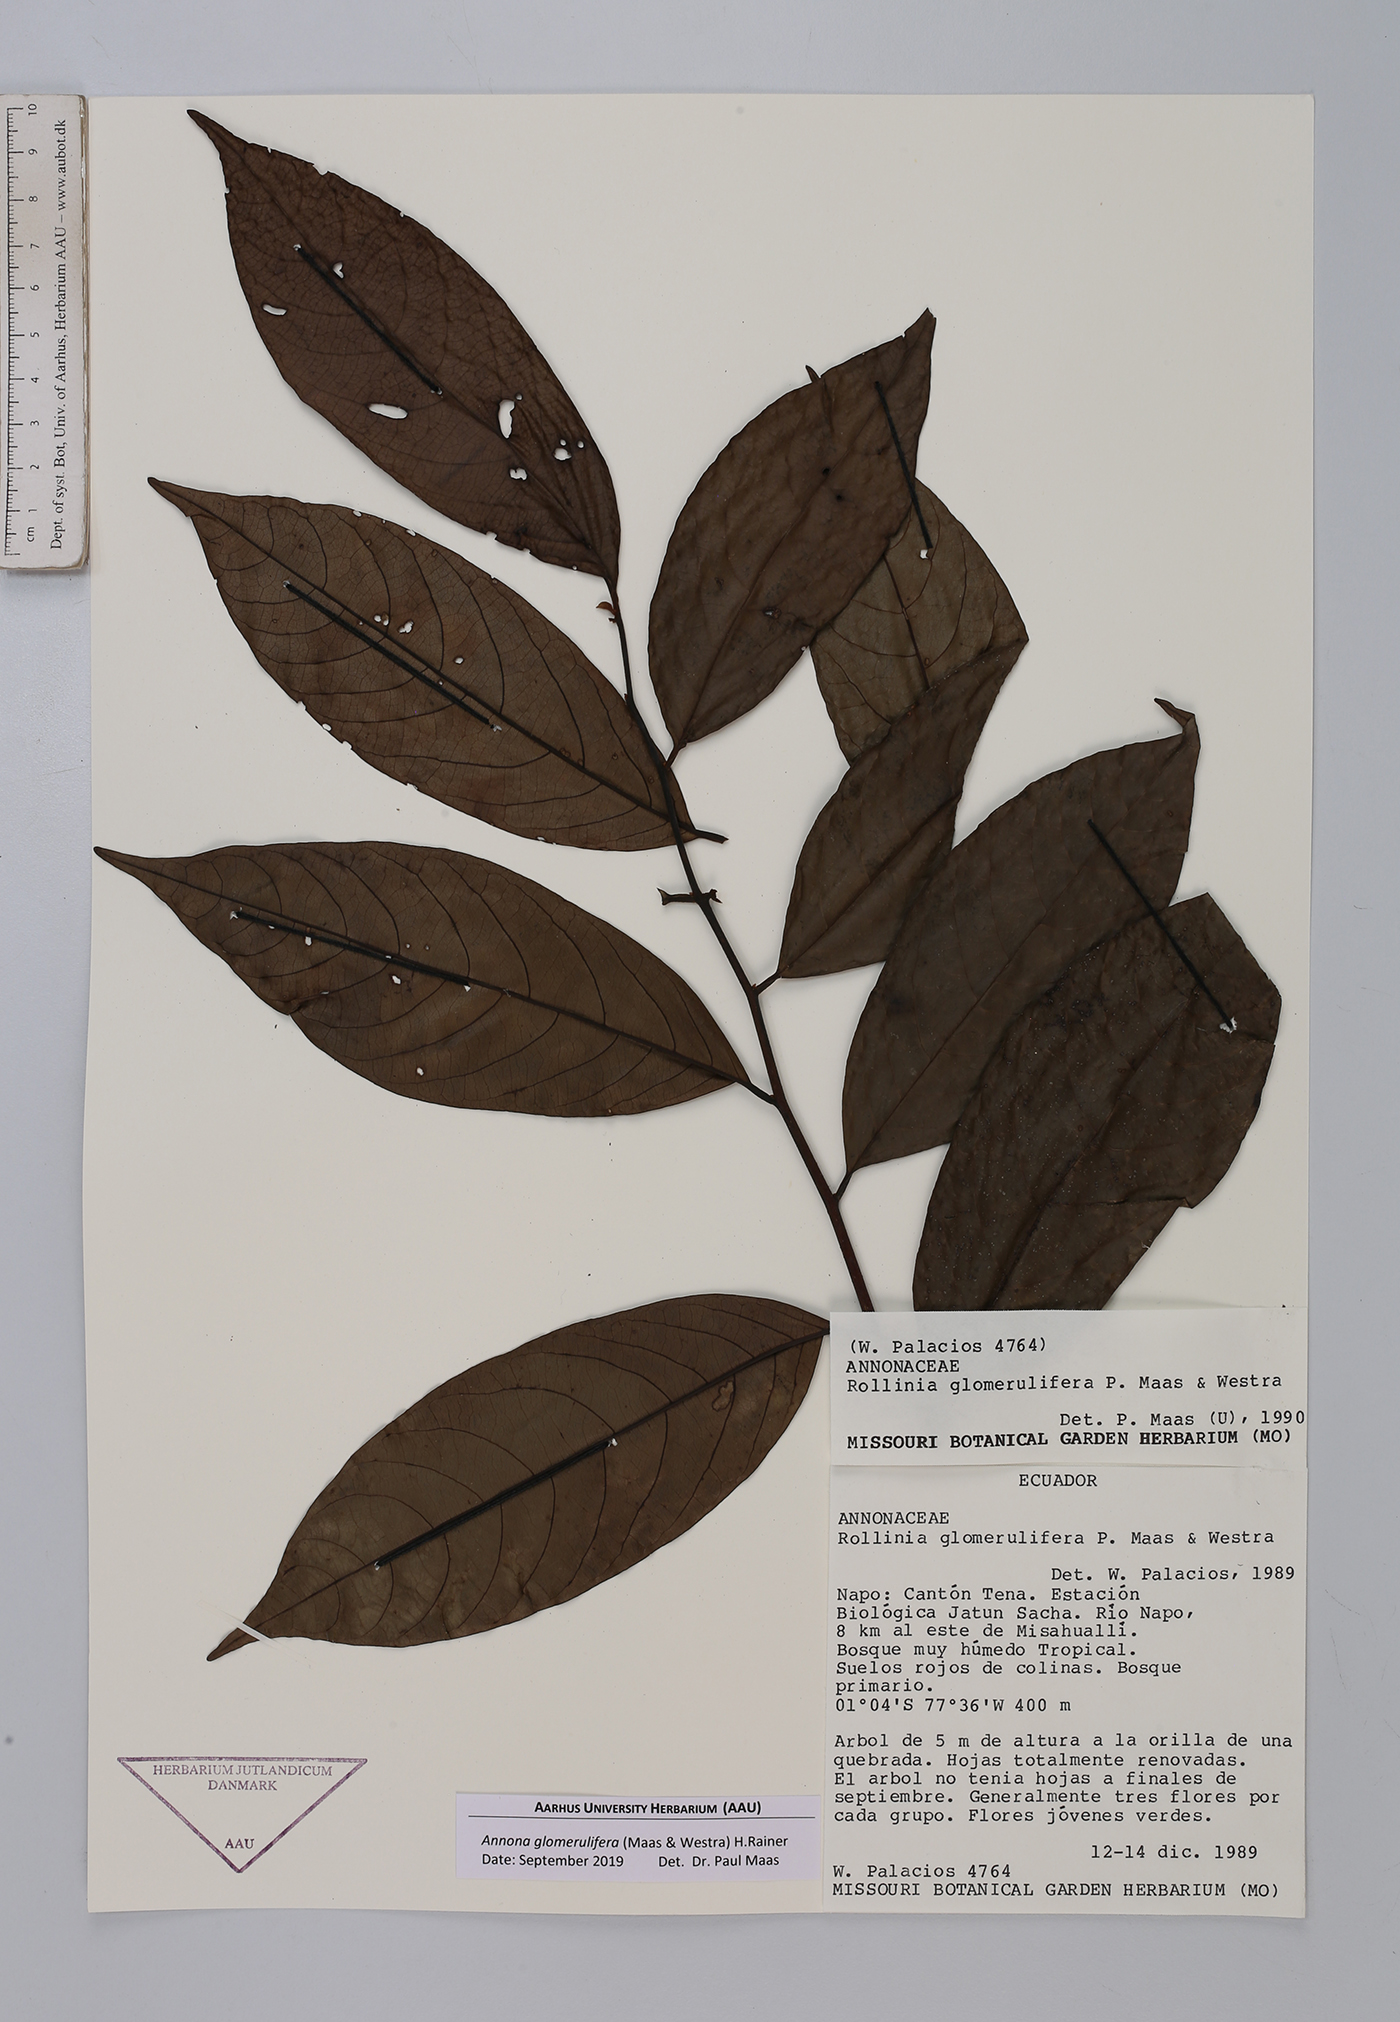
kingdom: Plantae
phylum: Tracheophyta
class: Magnoliopsida
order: Magnoliales
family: Annonaceae
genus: Annona
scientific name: Annona glomerulifera
